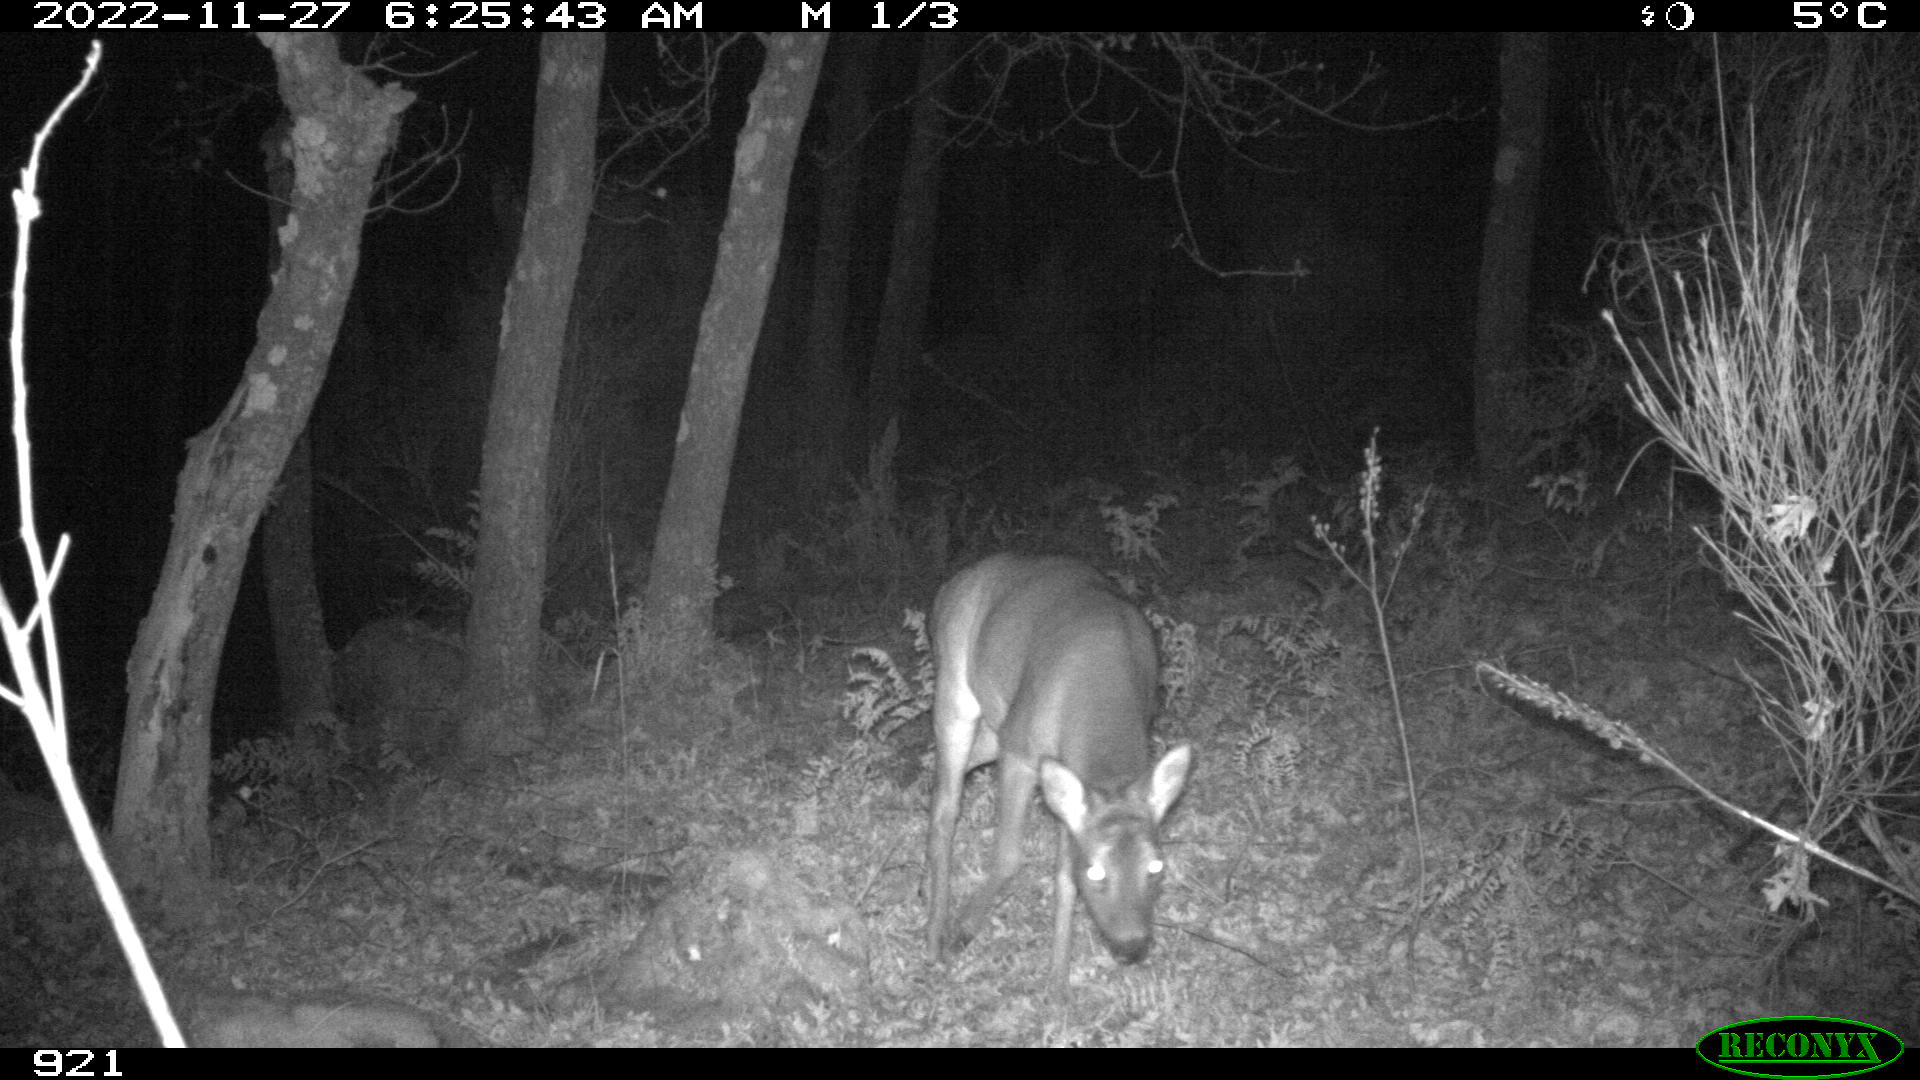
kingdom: Animalia
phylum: Chordata
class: Mammalia
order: Artiodactyla
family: Cervidae
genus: Capreolus
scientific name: Capreolus capreolus
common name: Western roe deer
